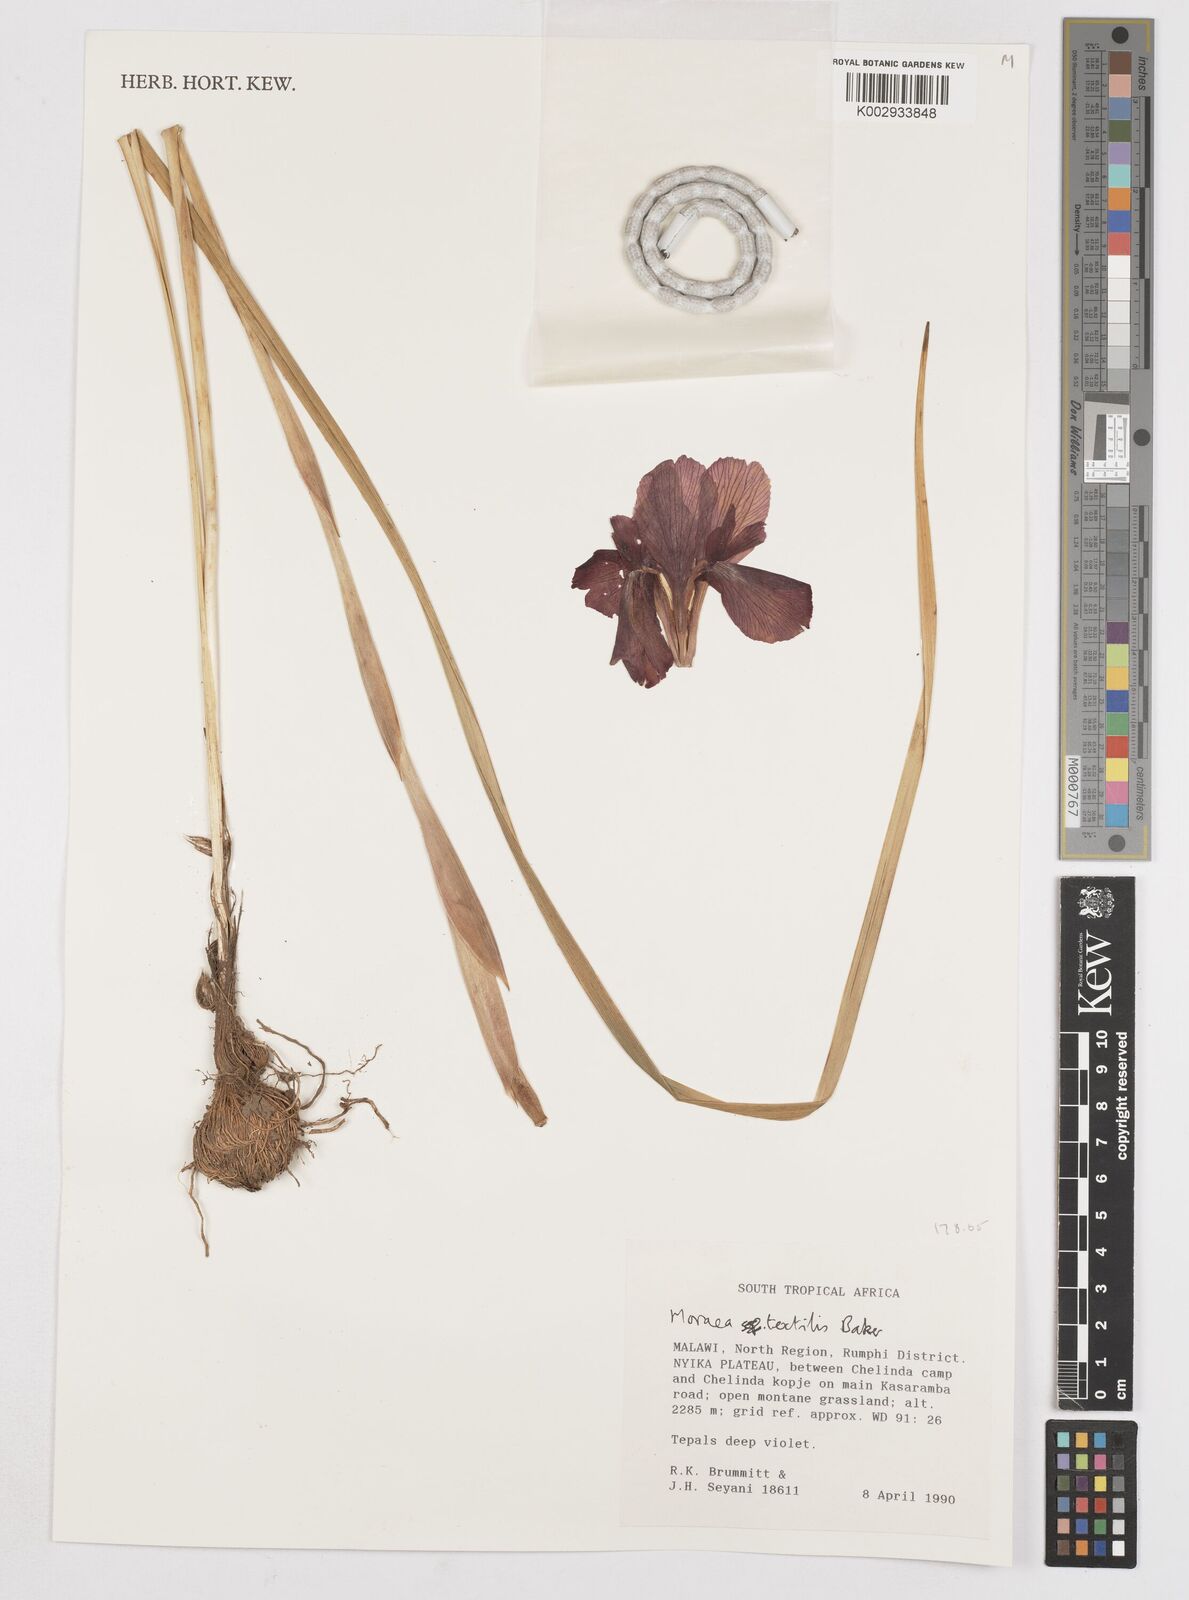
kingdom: Plantae
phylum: Tracheophyta
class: Liliopsida
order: Asparagales
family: Iridaceae
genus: Moraea
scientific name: Moraea textilis
